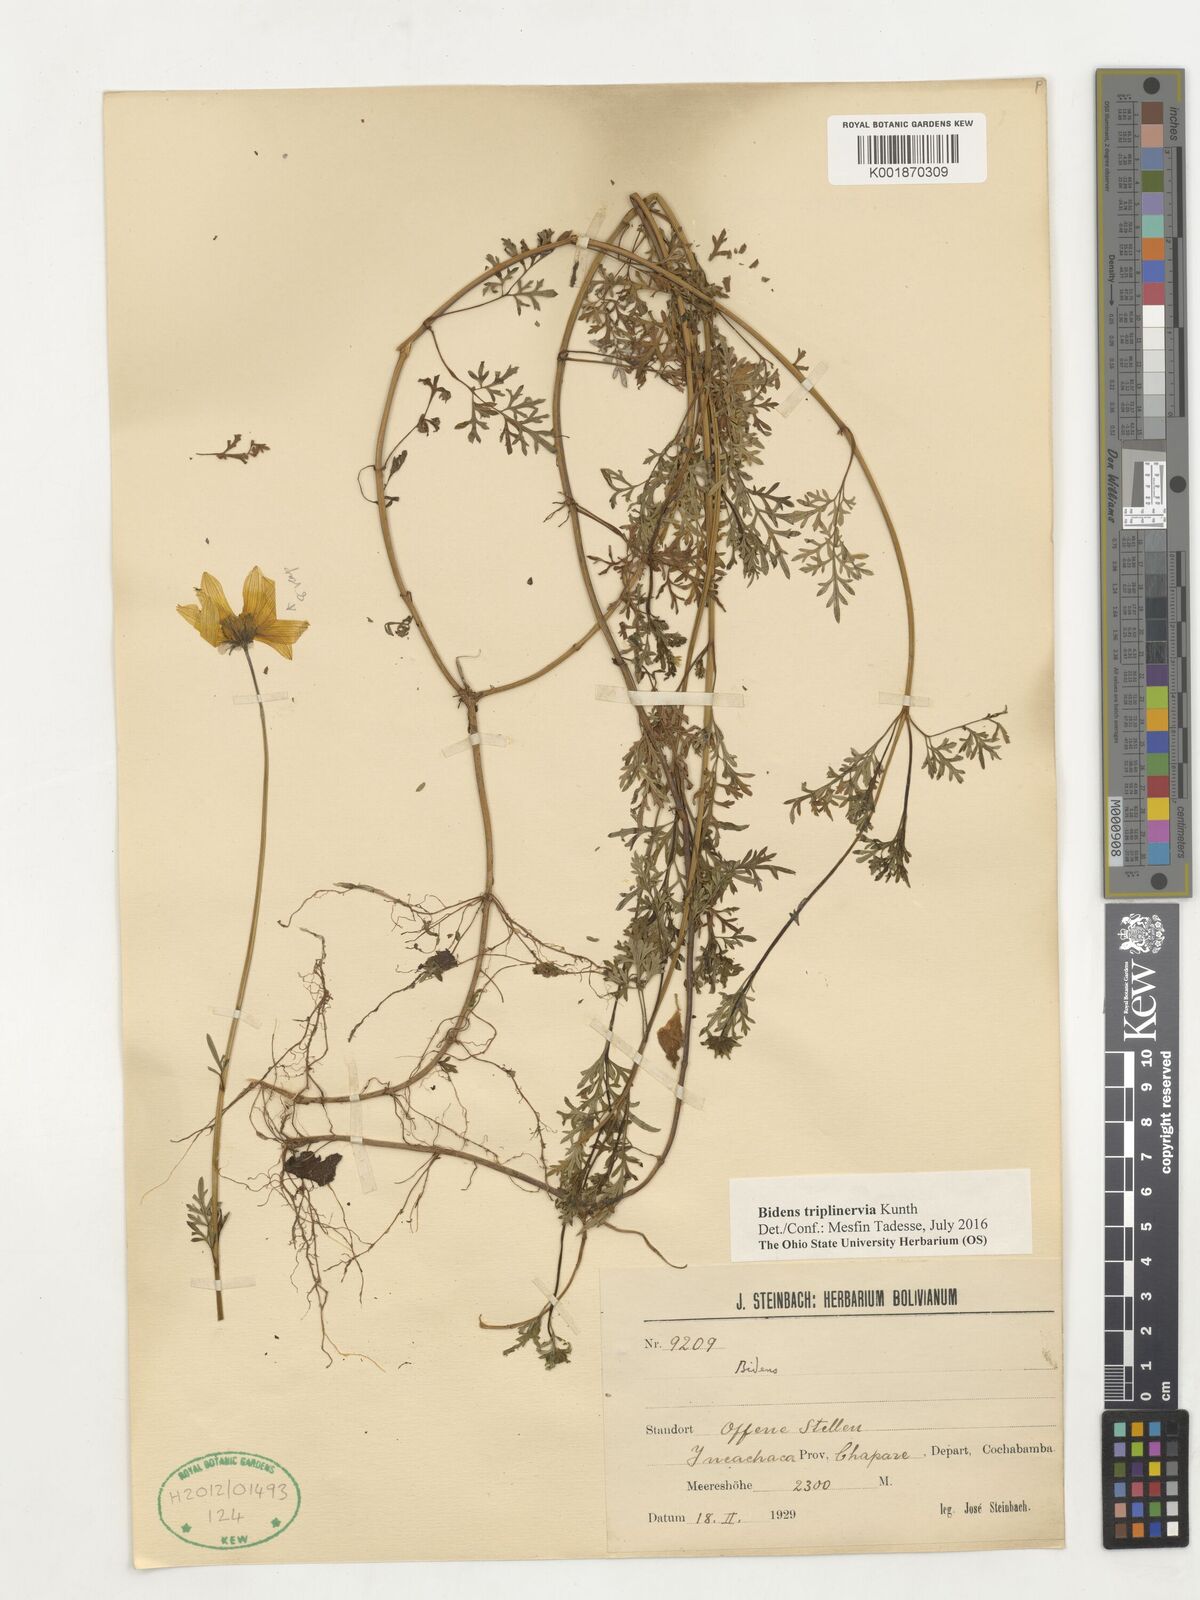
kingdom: Plantae
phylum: Tracheophyta
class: Magnoliopsida
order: Asterales
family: Asteraceae
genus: Bidens
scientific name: Bidens triplinervia
